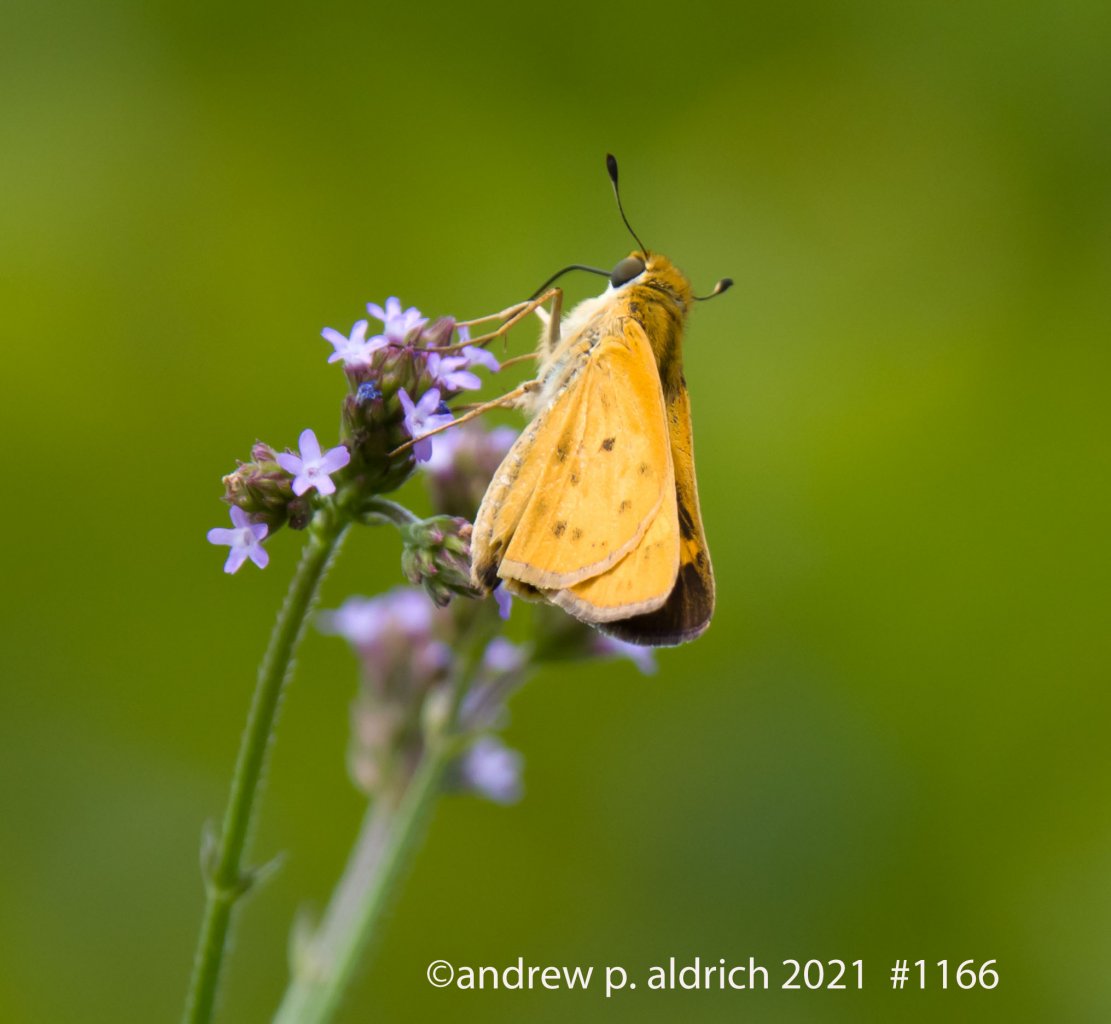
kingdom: Animalia
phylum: Arthropoda
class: Insecta
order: Lepidoptera
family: Hesperiidae
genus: Hylephila
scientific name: Hylephila phyleus
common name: Fiery Skipper
